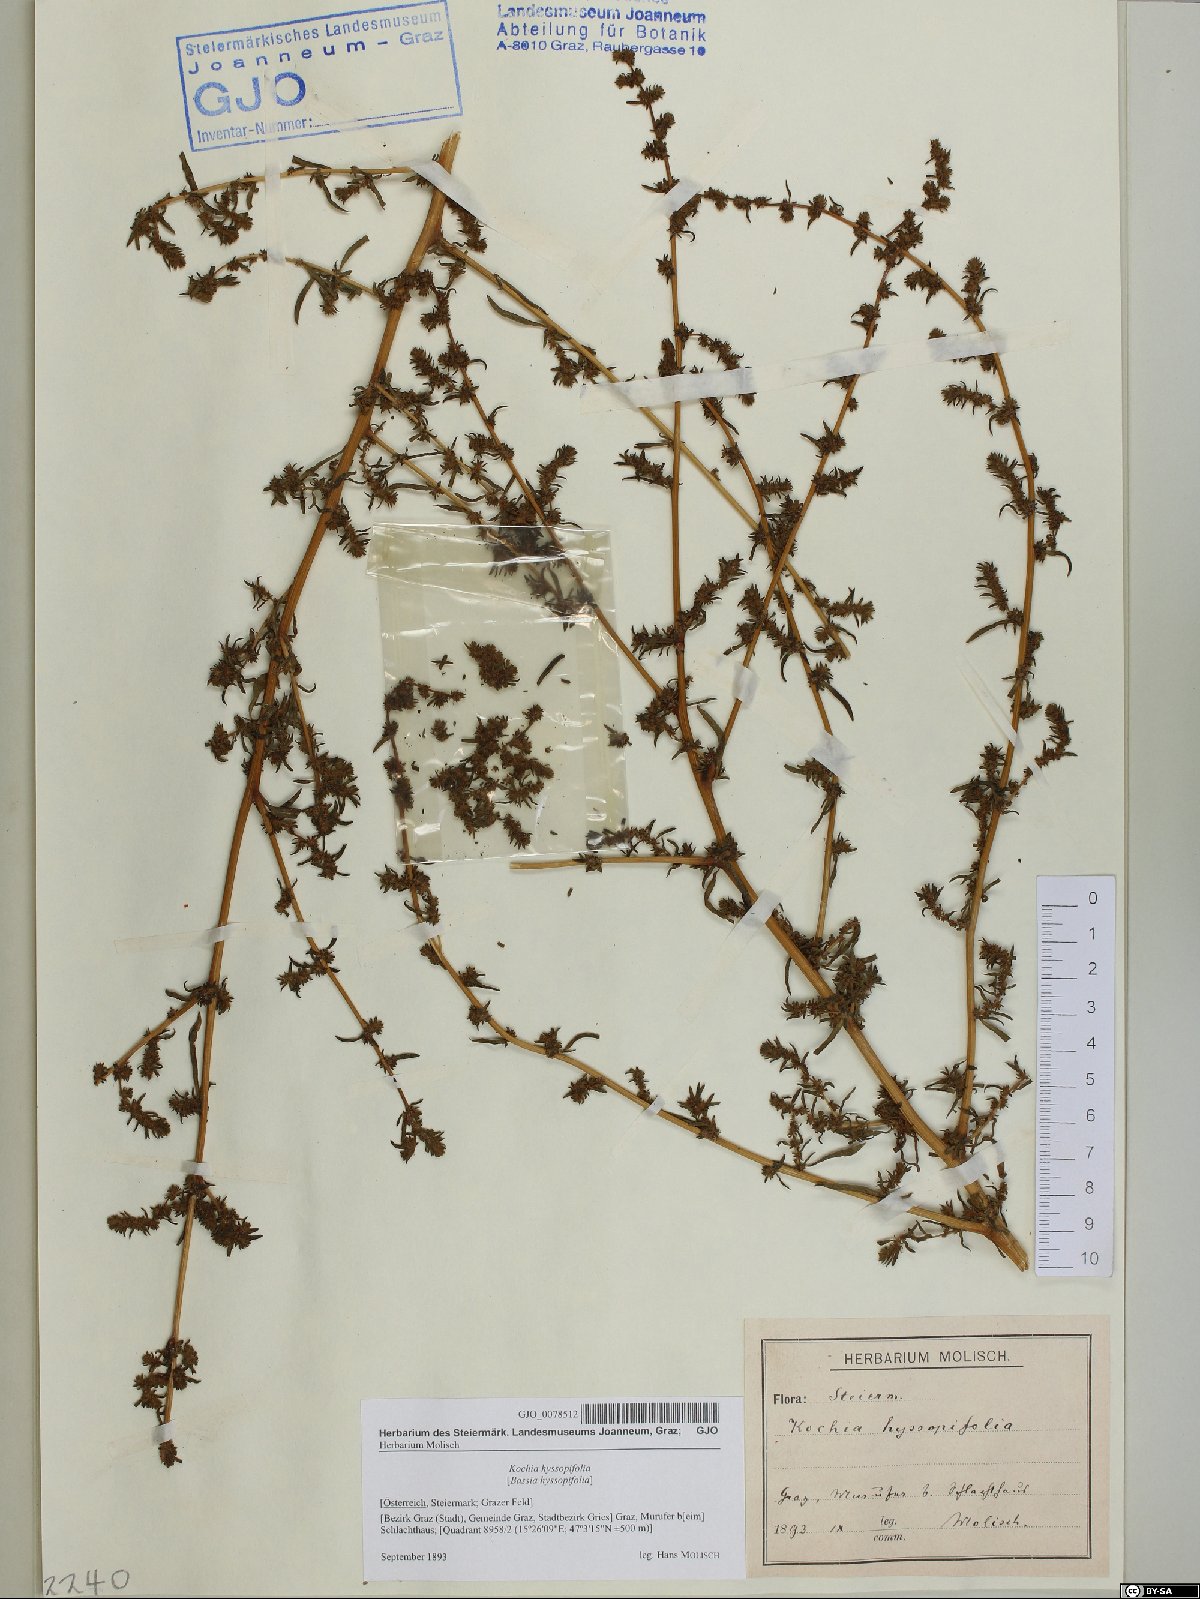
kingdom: Plantae
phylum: Tracheophyta
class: Magnoliopsida
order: Caryophyllales
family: Amaranthaceae
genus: Bassia
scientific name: Bassia hyssopifolia
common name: Fivehorn smotherweed
